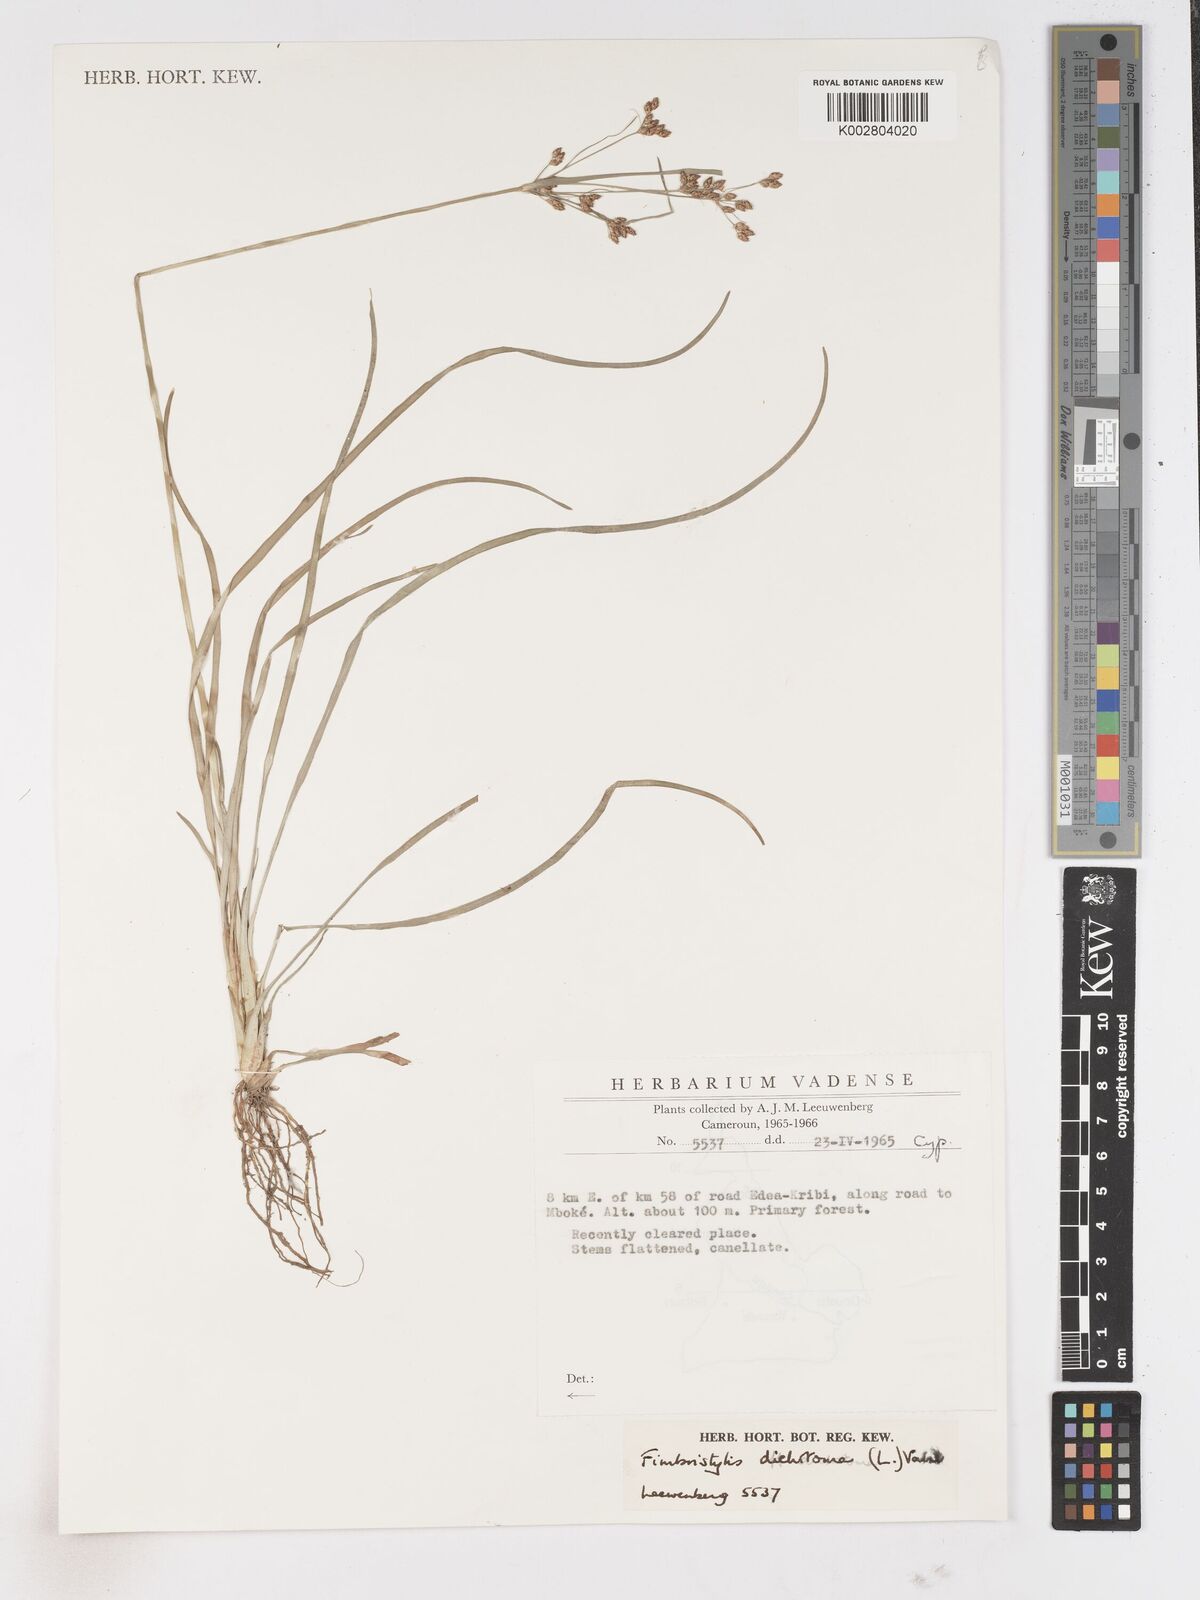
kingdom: Plantae
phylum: Tracheophyta
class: Liliopsida
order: Poales
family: Cyperaceae
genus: Fimbristylis
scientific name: Fimbristylis dichotoma
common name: Forked fimbry
